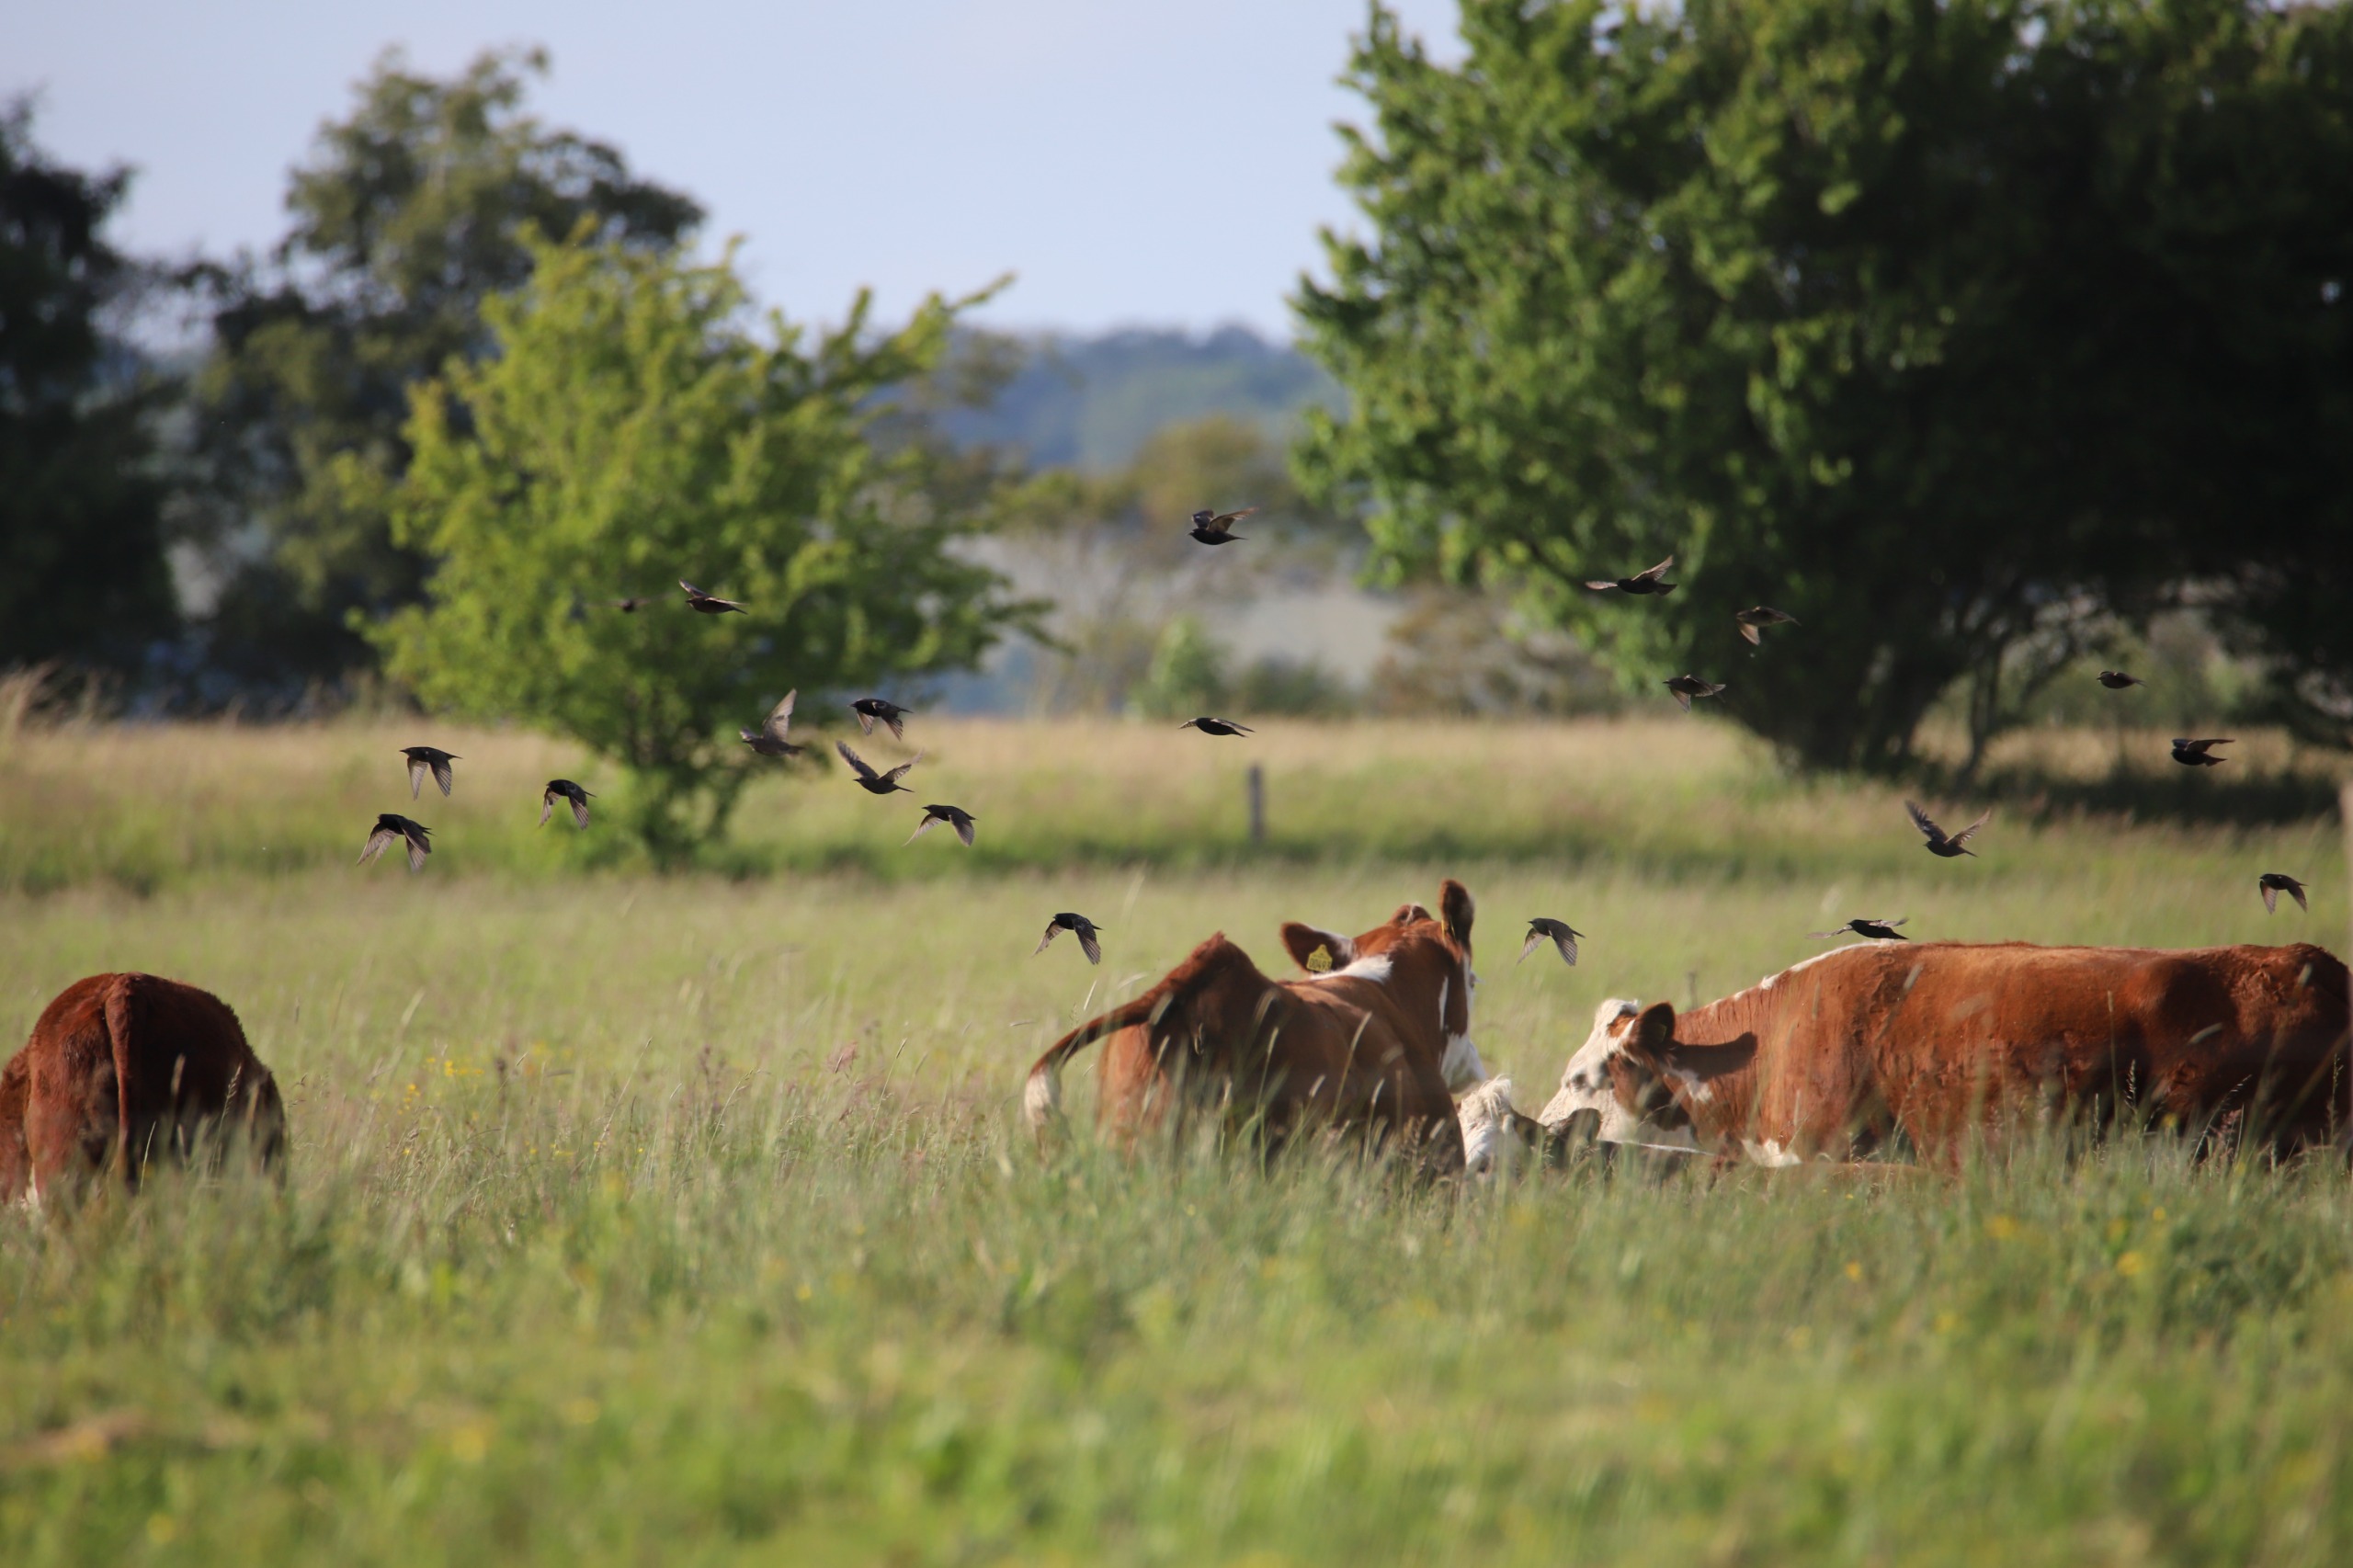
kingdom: Animalia
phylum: Chordata
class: Aves
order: Passeriformes
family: Sturnidae
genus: Sturnus
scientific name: Sturnus vulgaris
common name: Stær
